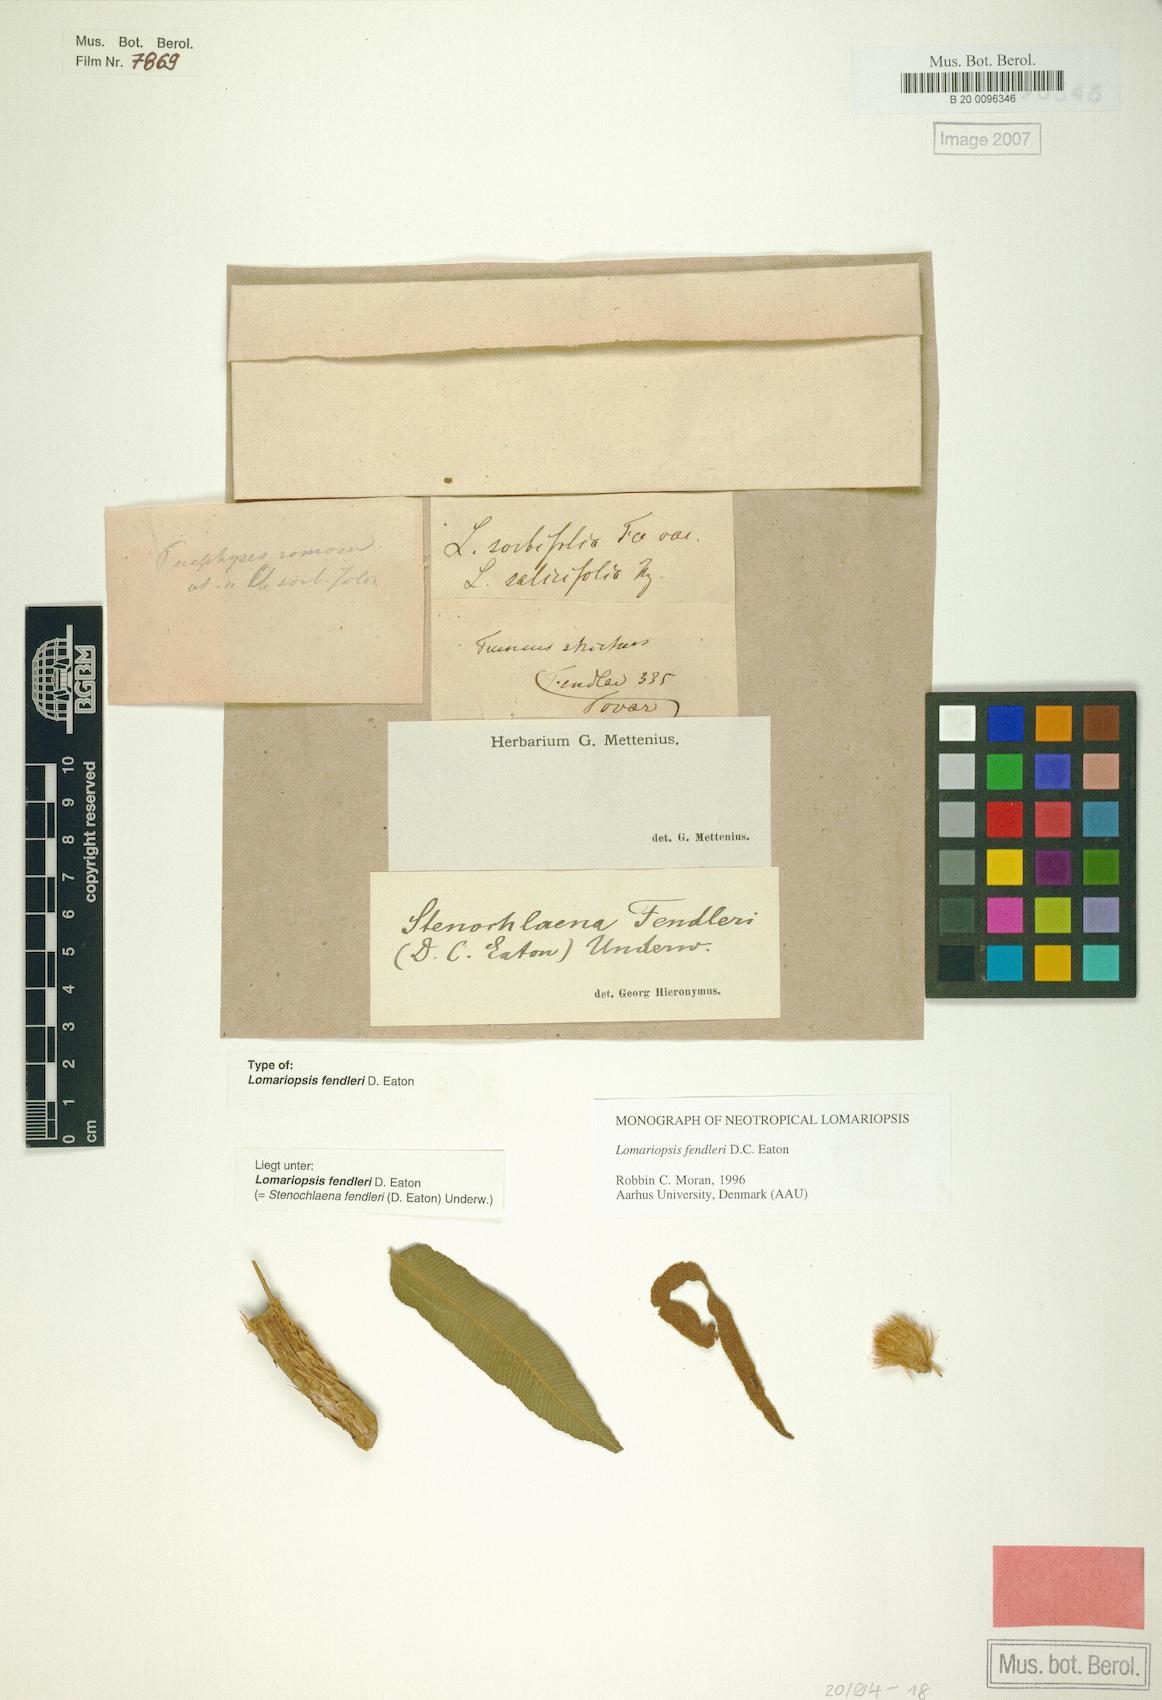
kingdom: Plantae
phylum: Tracheophyta
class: Polypodiopsida
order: Polypodiales
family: Lomariopsidaceae
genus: Lomariopsis
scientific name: Lomariopsis fendleri
